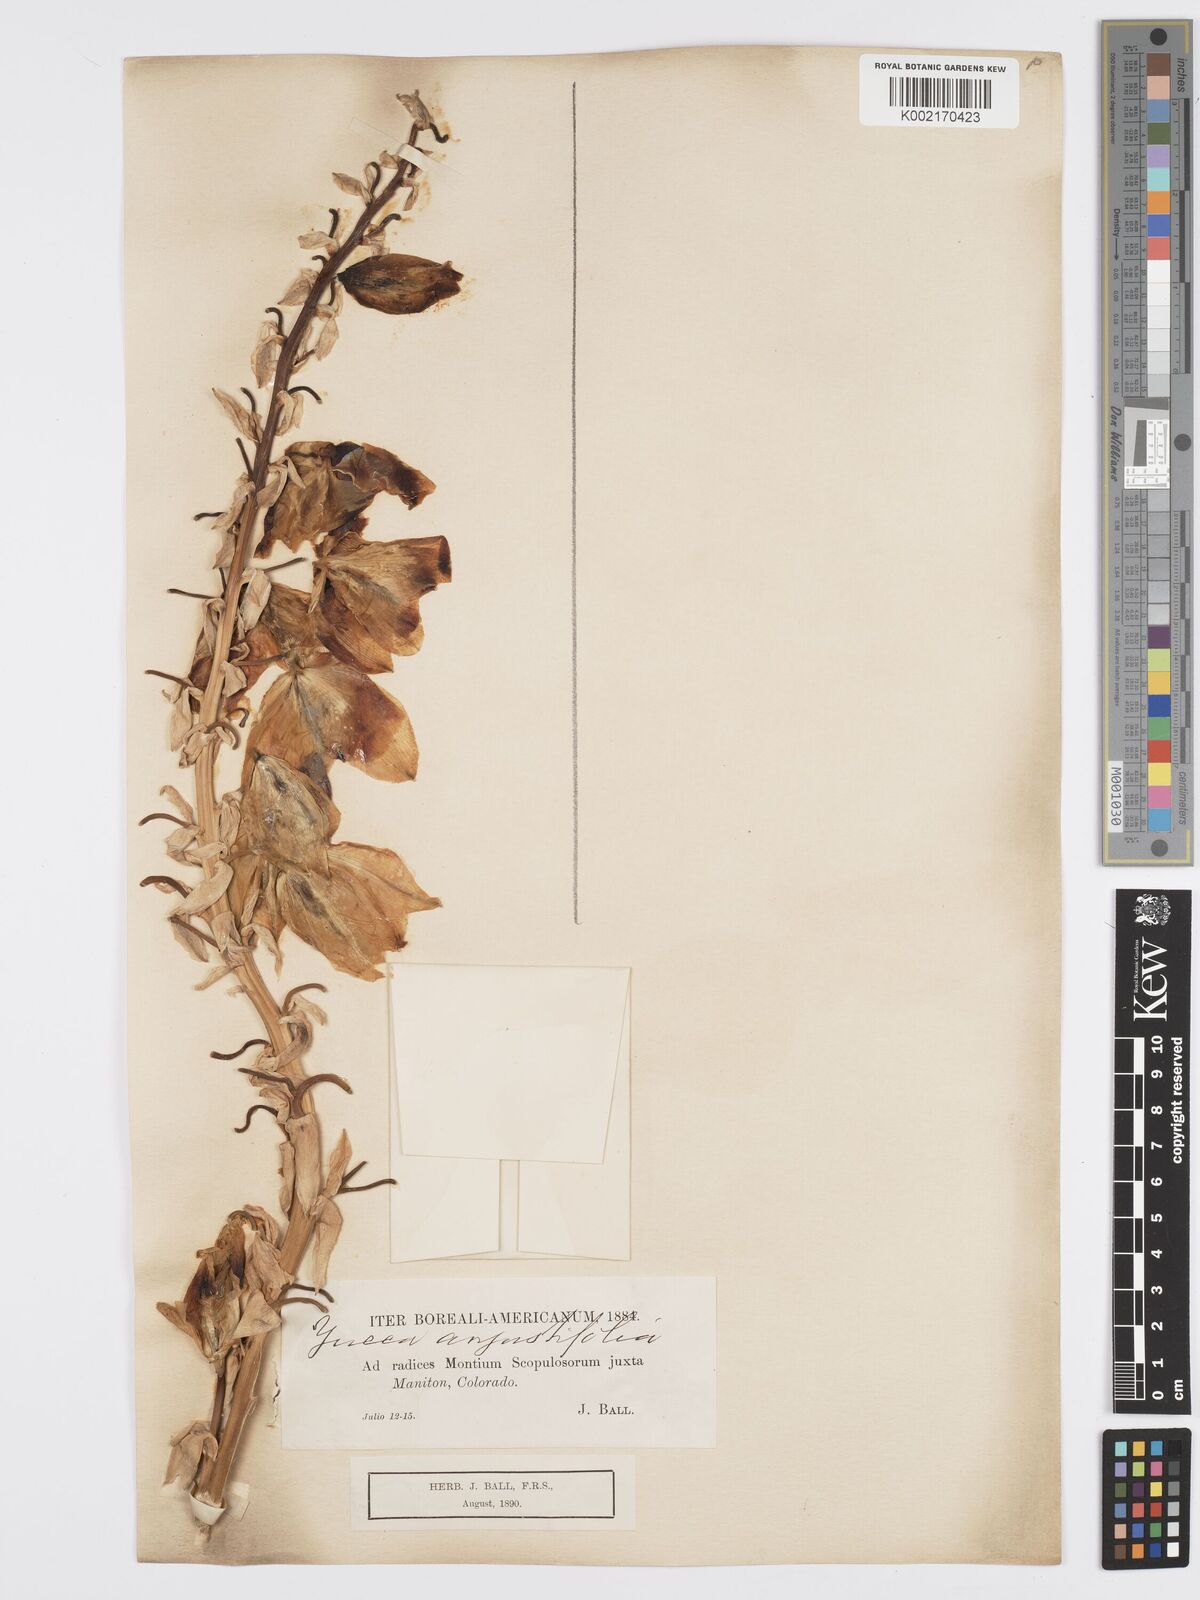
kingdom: Plantae
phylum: Tracheophyta
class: Liliopsida
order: Asparagales
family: Asparagaceae
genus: Yucca
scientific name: Yucca glauca
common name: Great plains yucca
